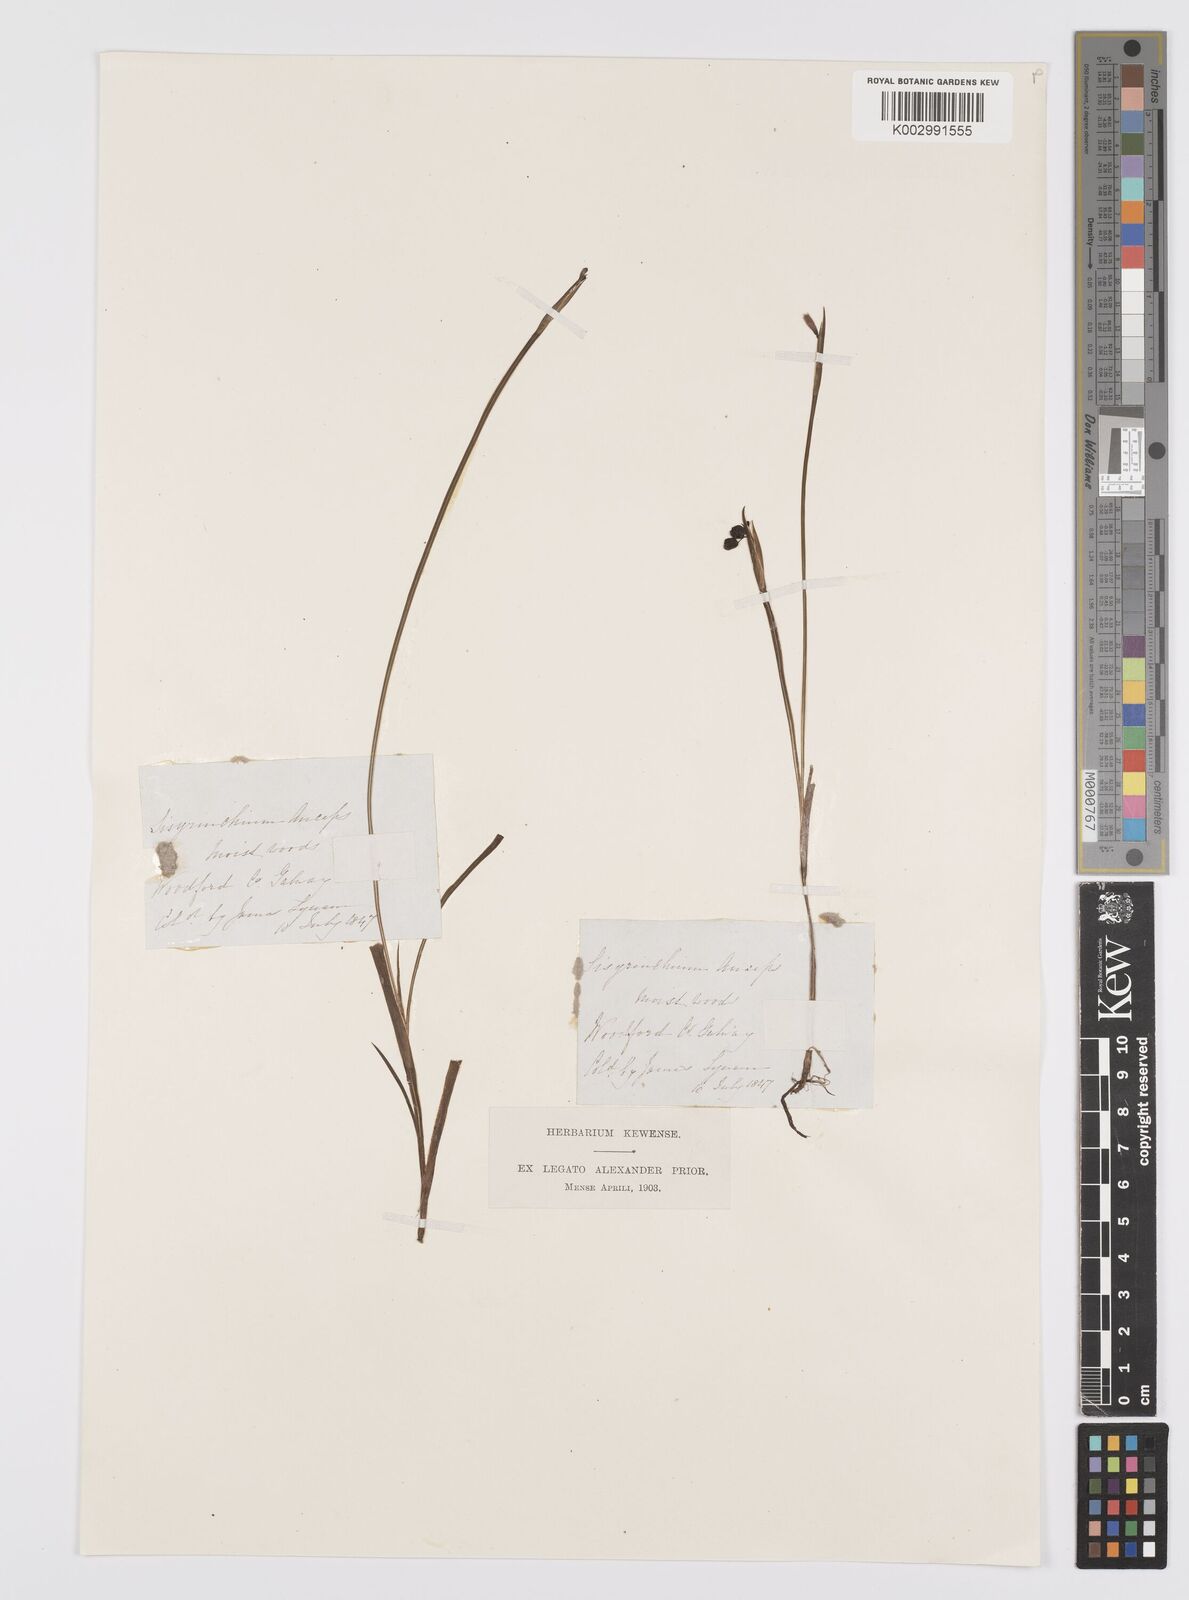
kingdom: Plantae
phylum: Tracheophyta
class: Liliopsida
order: Asparagales
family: Iridaceae
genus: Sisyrinchium
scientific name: Sisyrinchium angustifolium
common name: Narrow-leaf blue-eyed-grass
